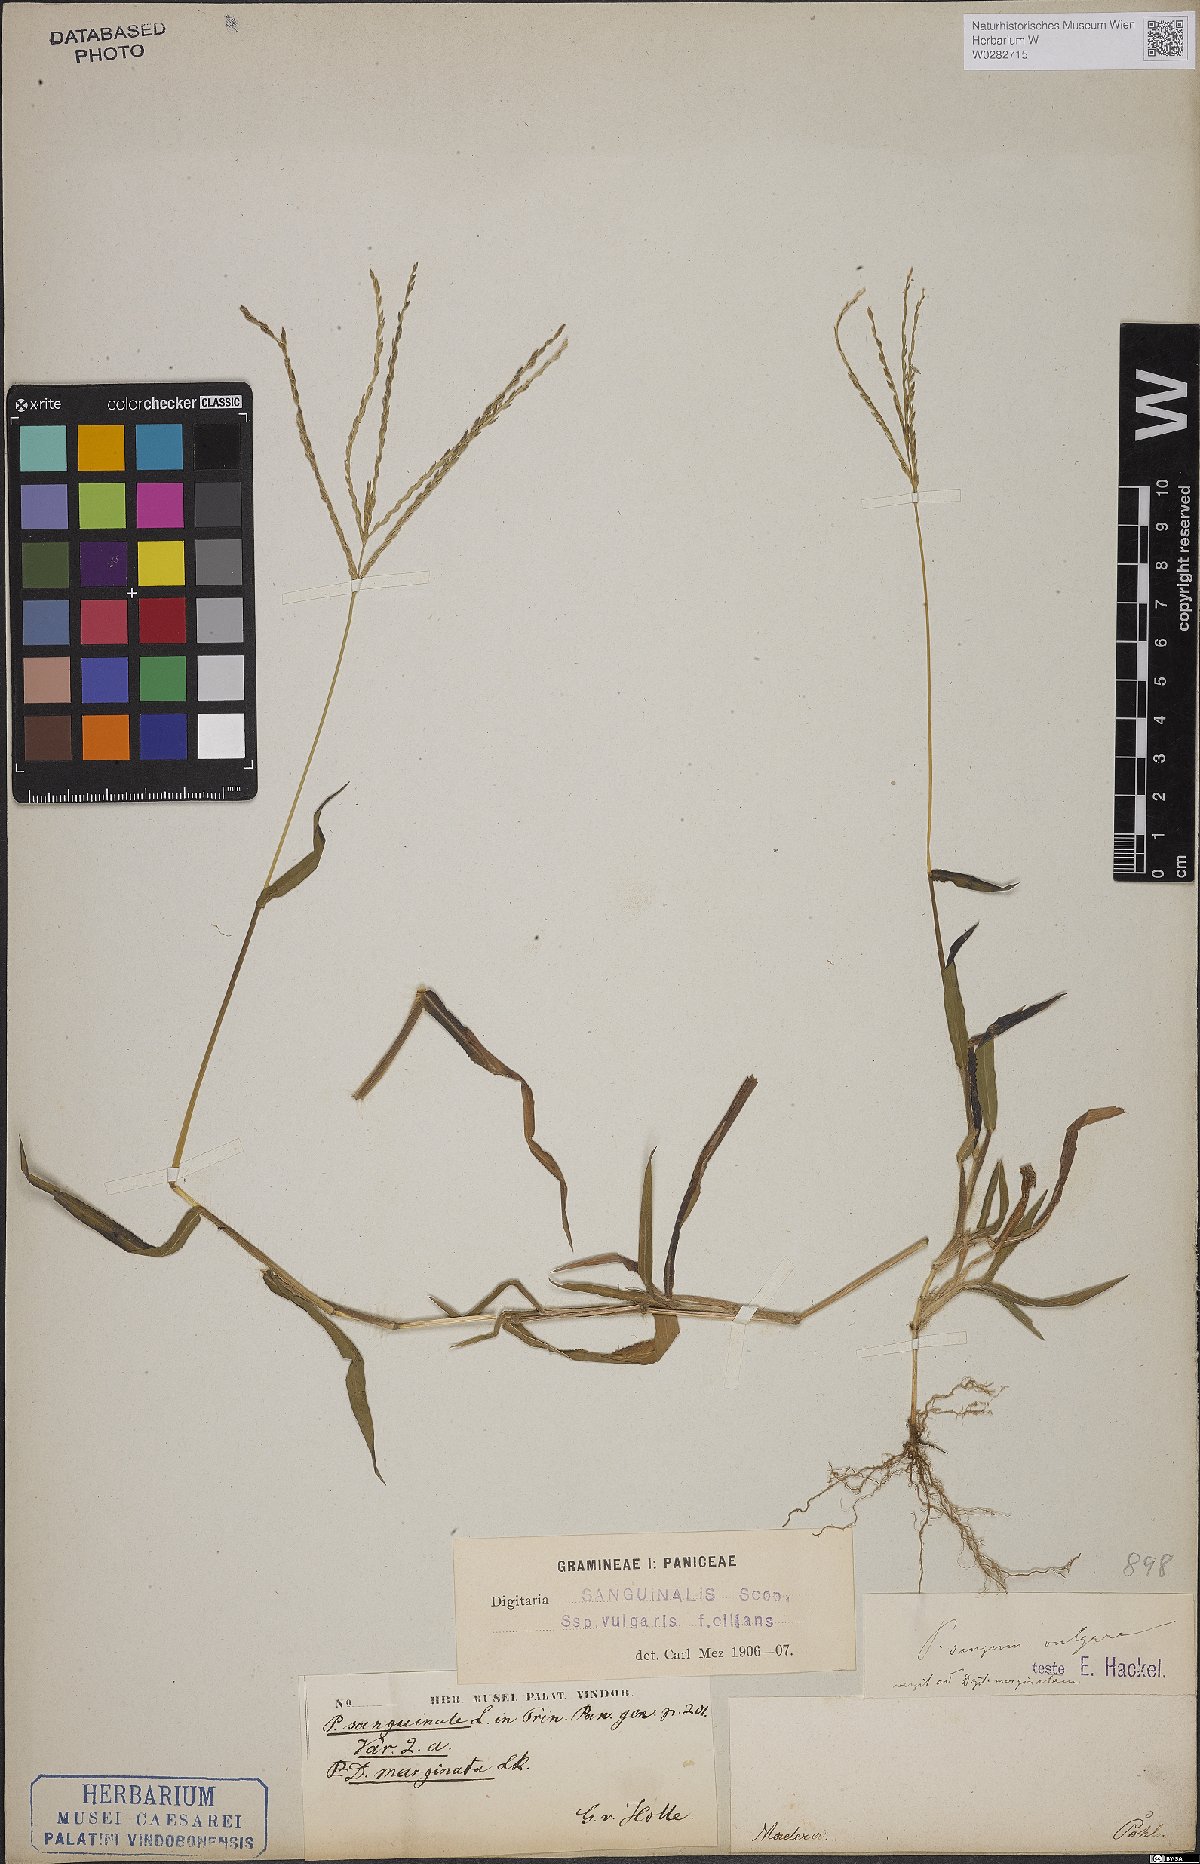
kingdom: Plantae
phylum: Tracheophyta
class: Liliopsida
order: Poales
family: Poaceae
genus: Digitaria
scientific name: Digitaria sanguinalis
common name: Hairy crabgrass
